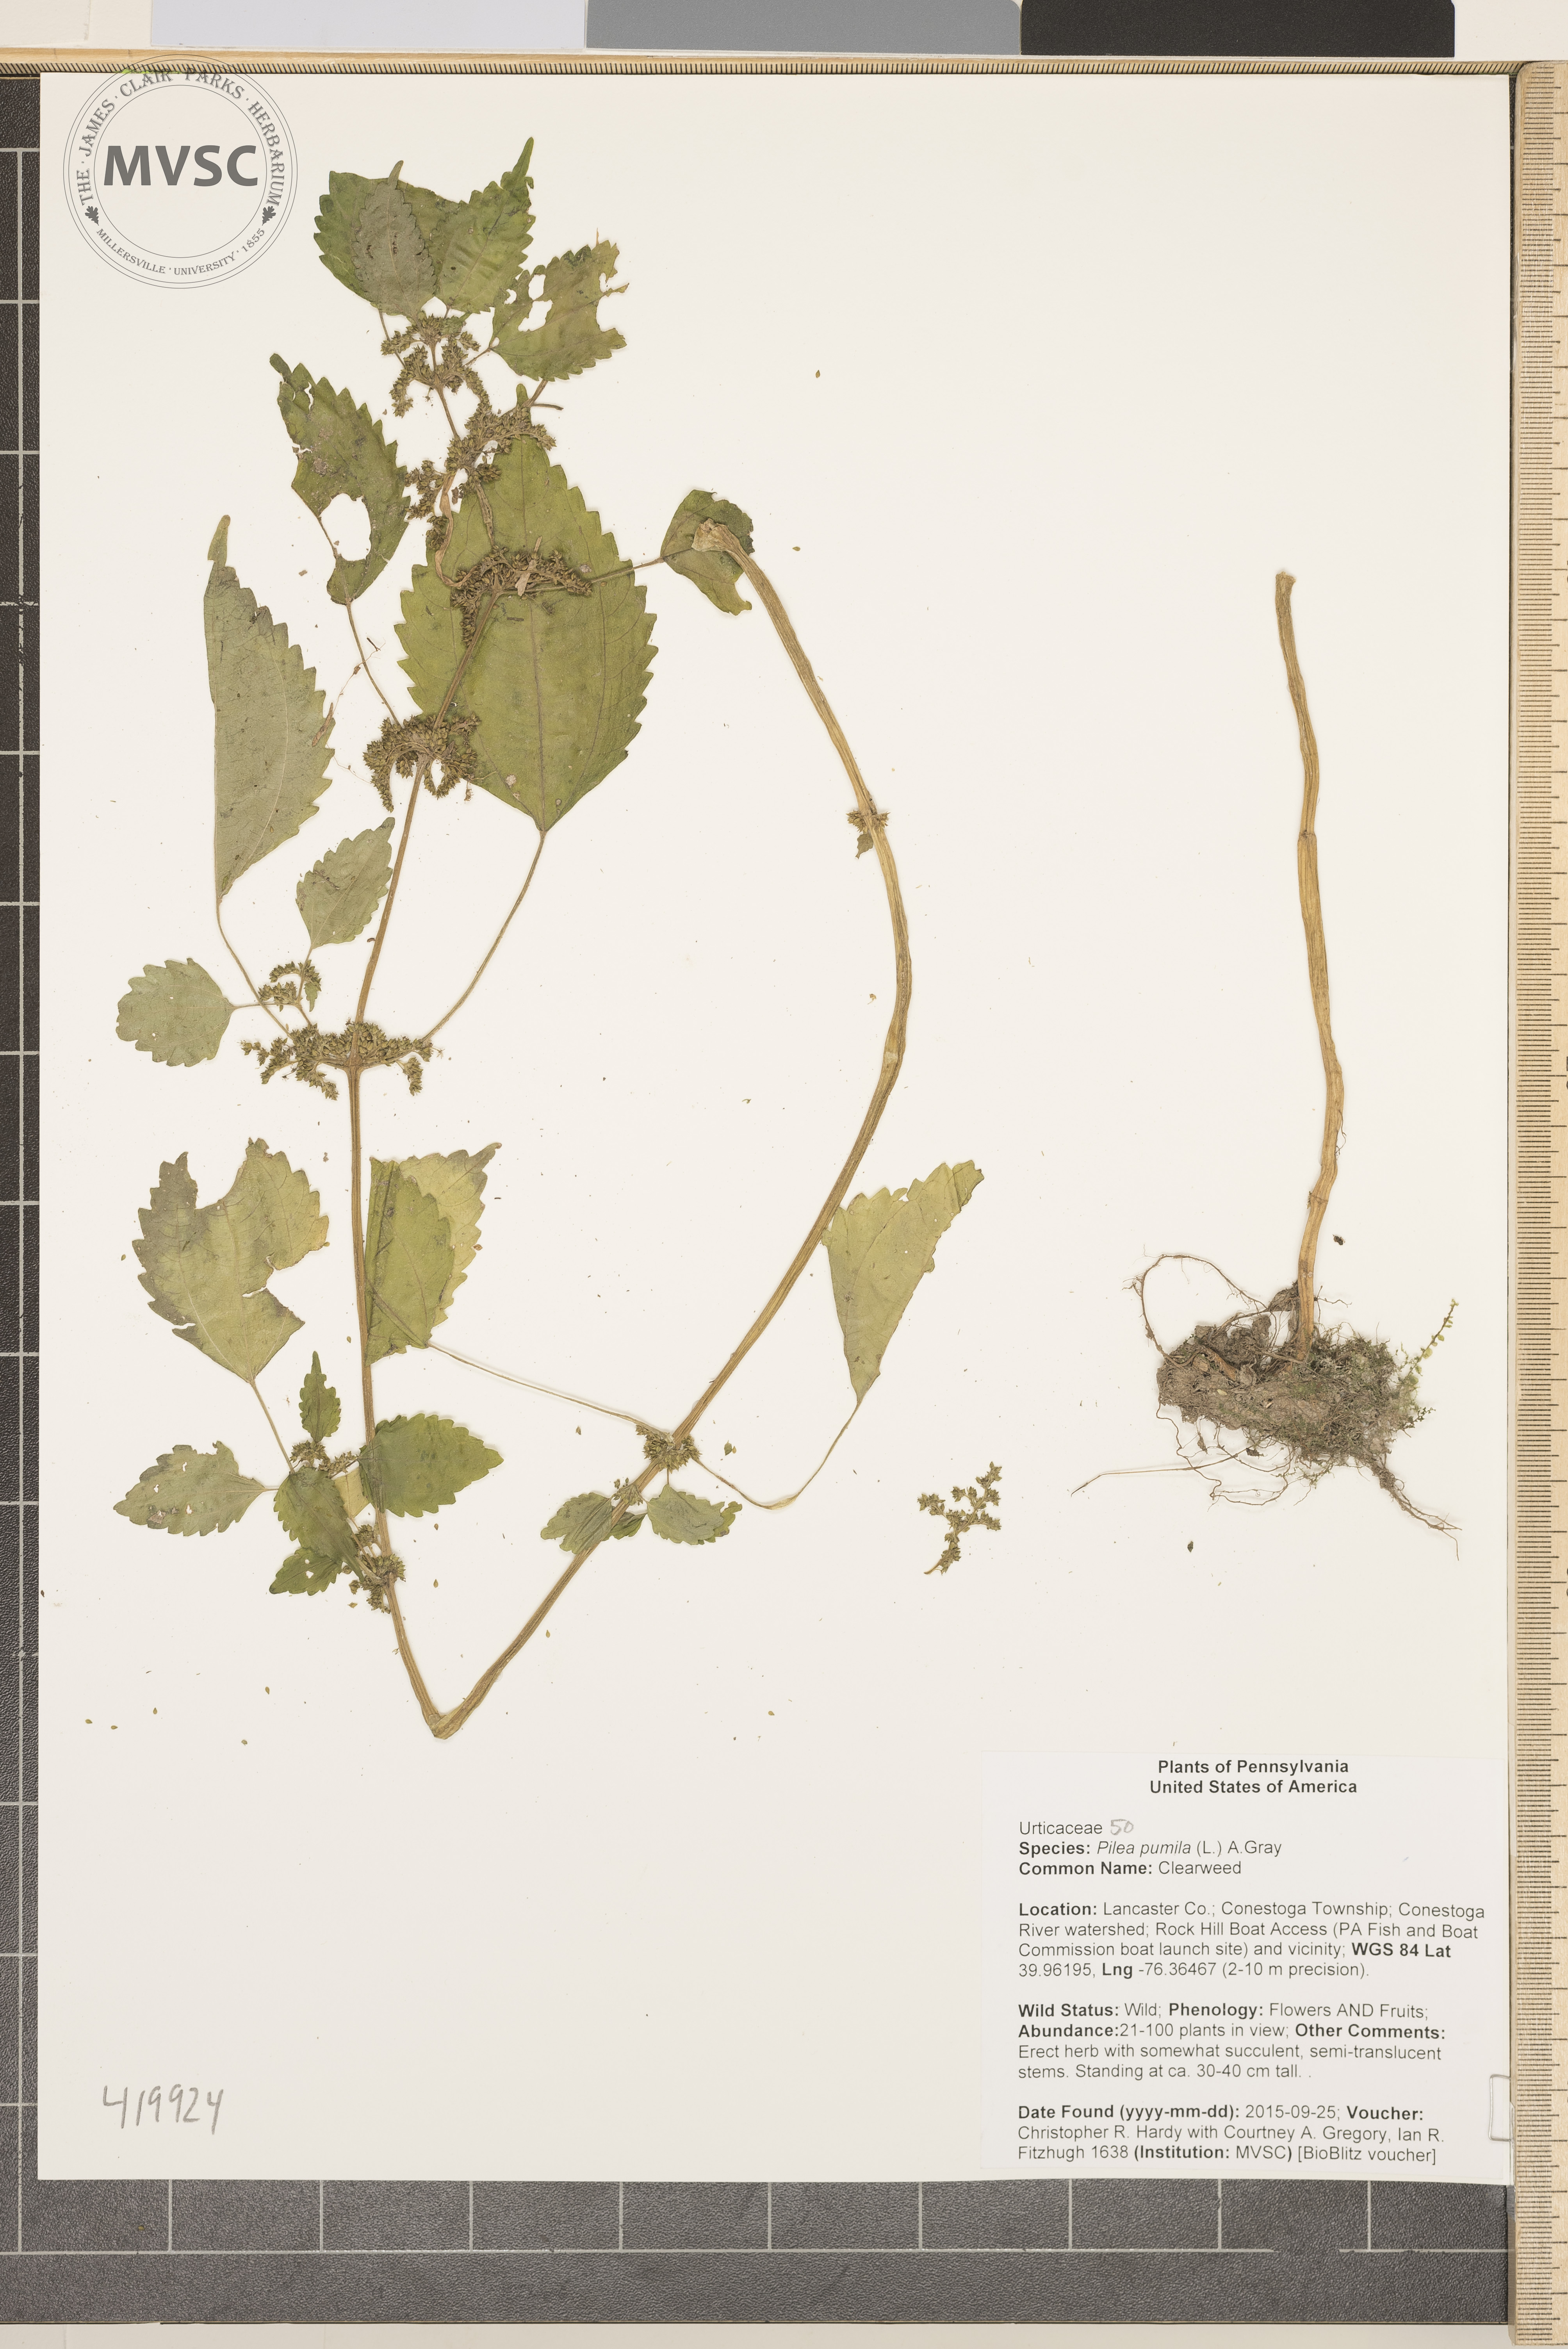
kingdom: Plantae
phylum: Tracheophyta
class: Magnoliopsida
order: Rosales
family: Urticaceae
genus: Pilea
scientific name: Pilea pumila
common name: Clearweed
